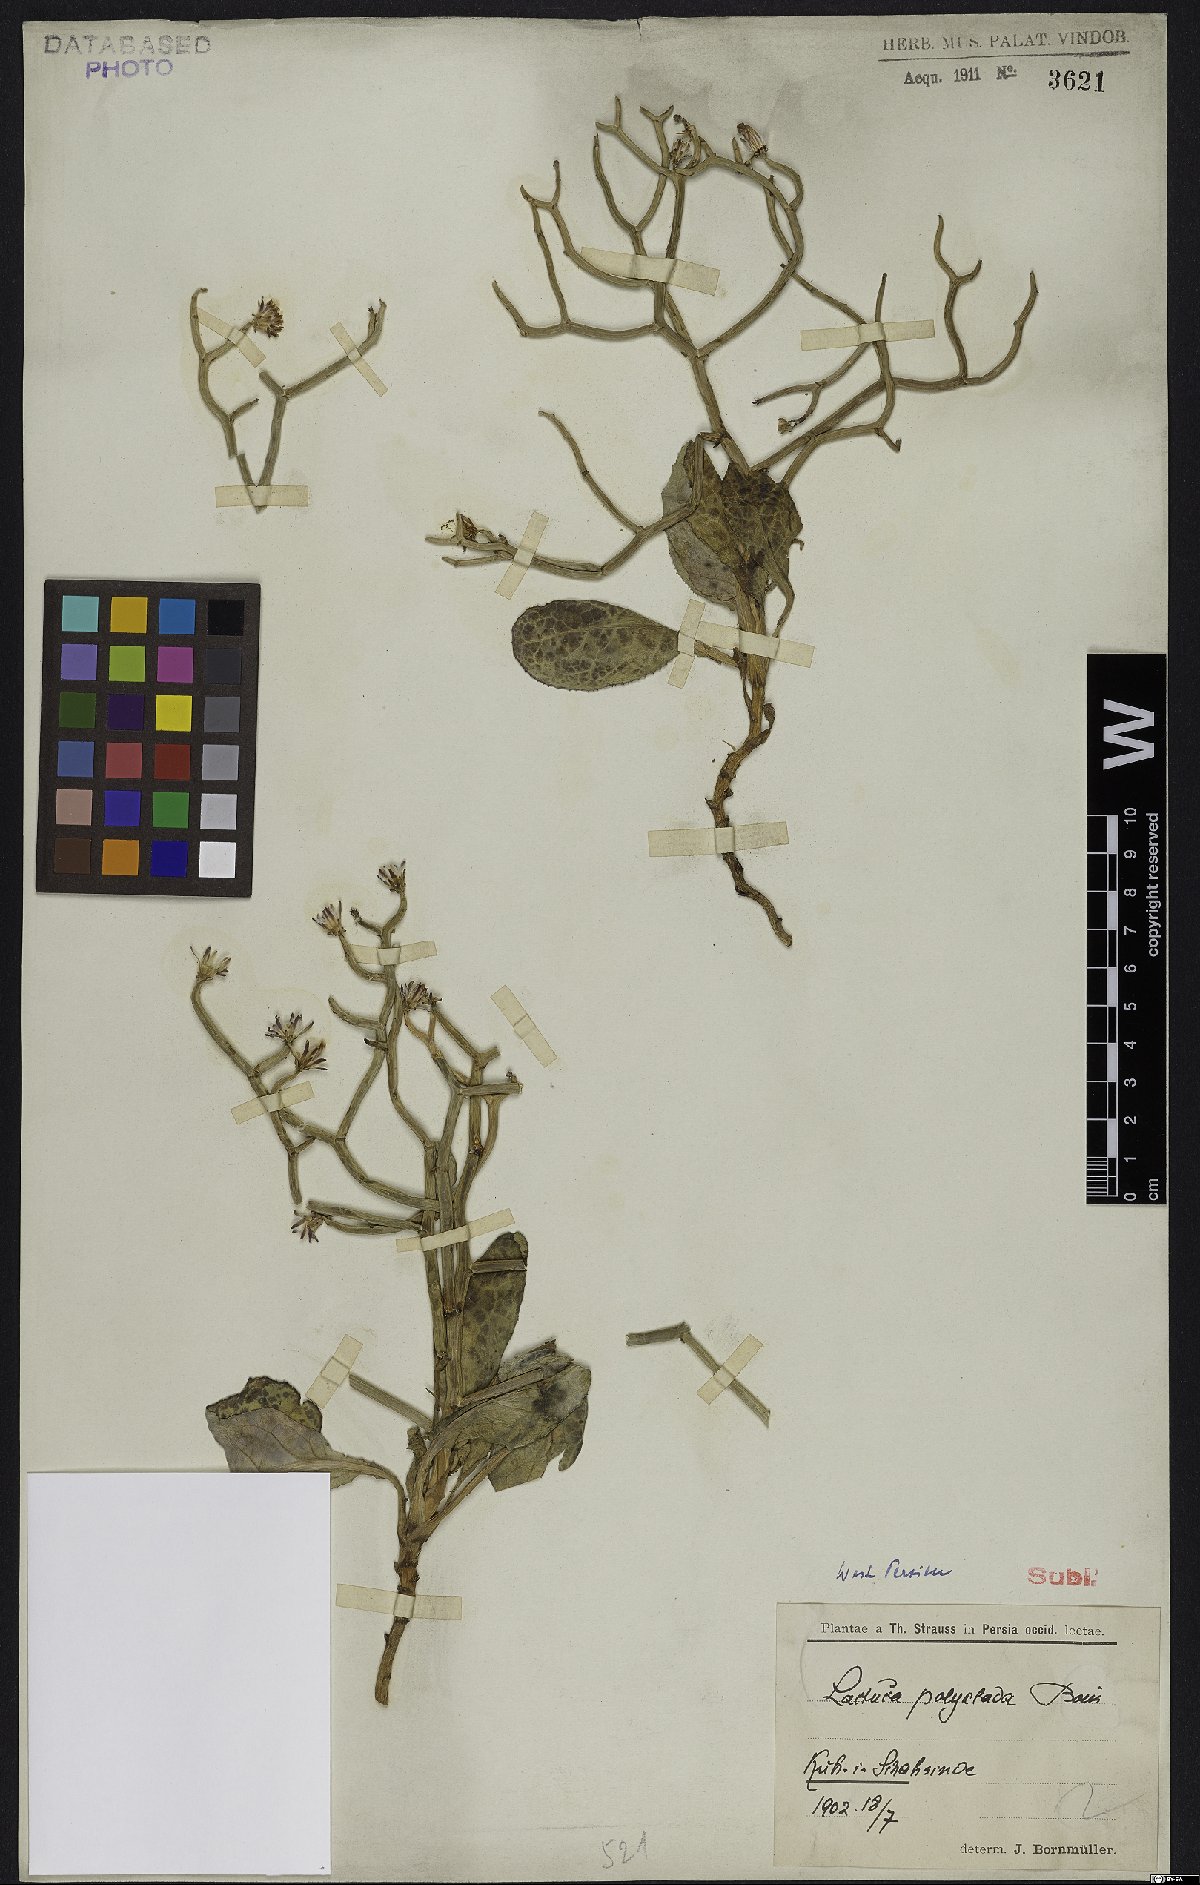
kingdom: Plantae
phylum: Tracheophyta
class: Magnoliopsida
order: Asterales
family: Asteraceae
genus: Lactuca
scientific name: Lactuca polyclada
